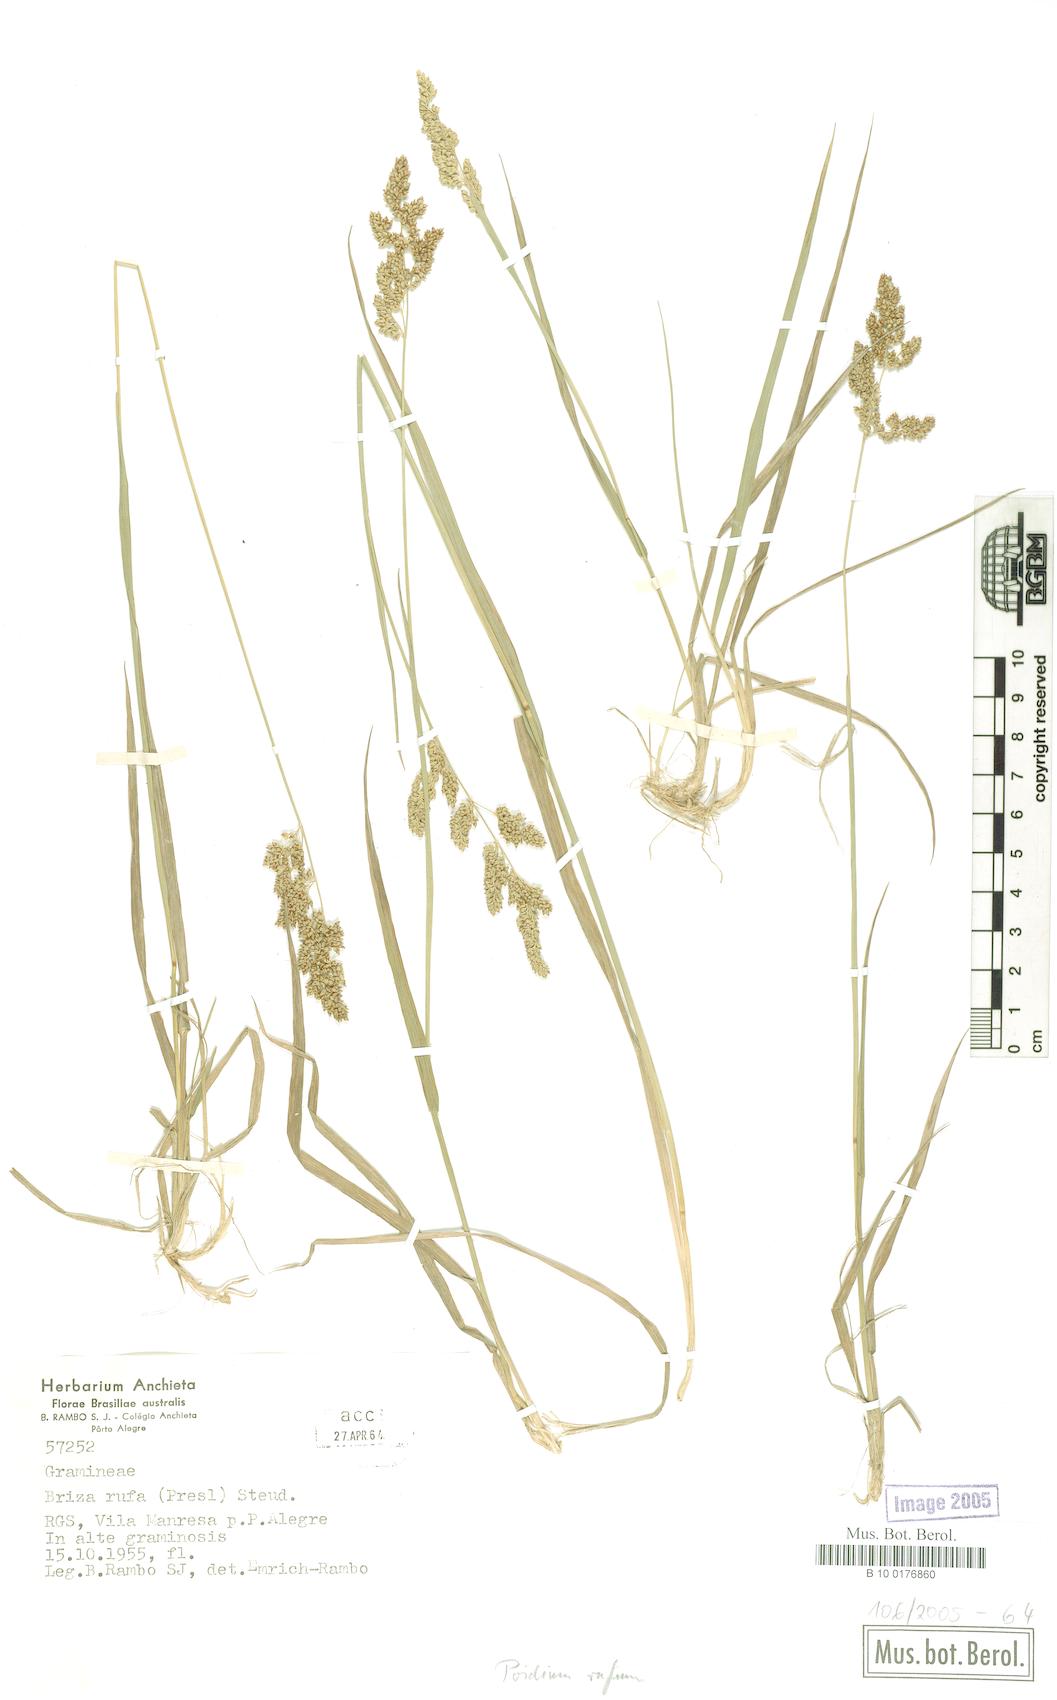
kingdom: Plantae
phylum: Tracheophyta
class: Liliopsida
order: Poales
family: Poaceae
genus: Lombardochloa
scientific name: Lombardochloa rufa
